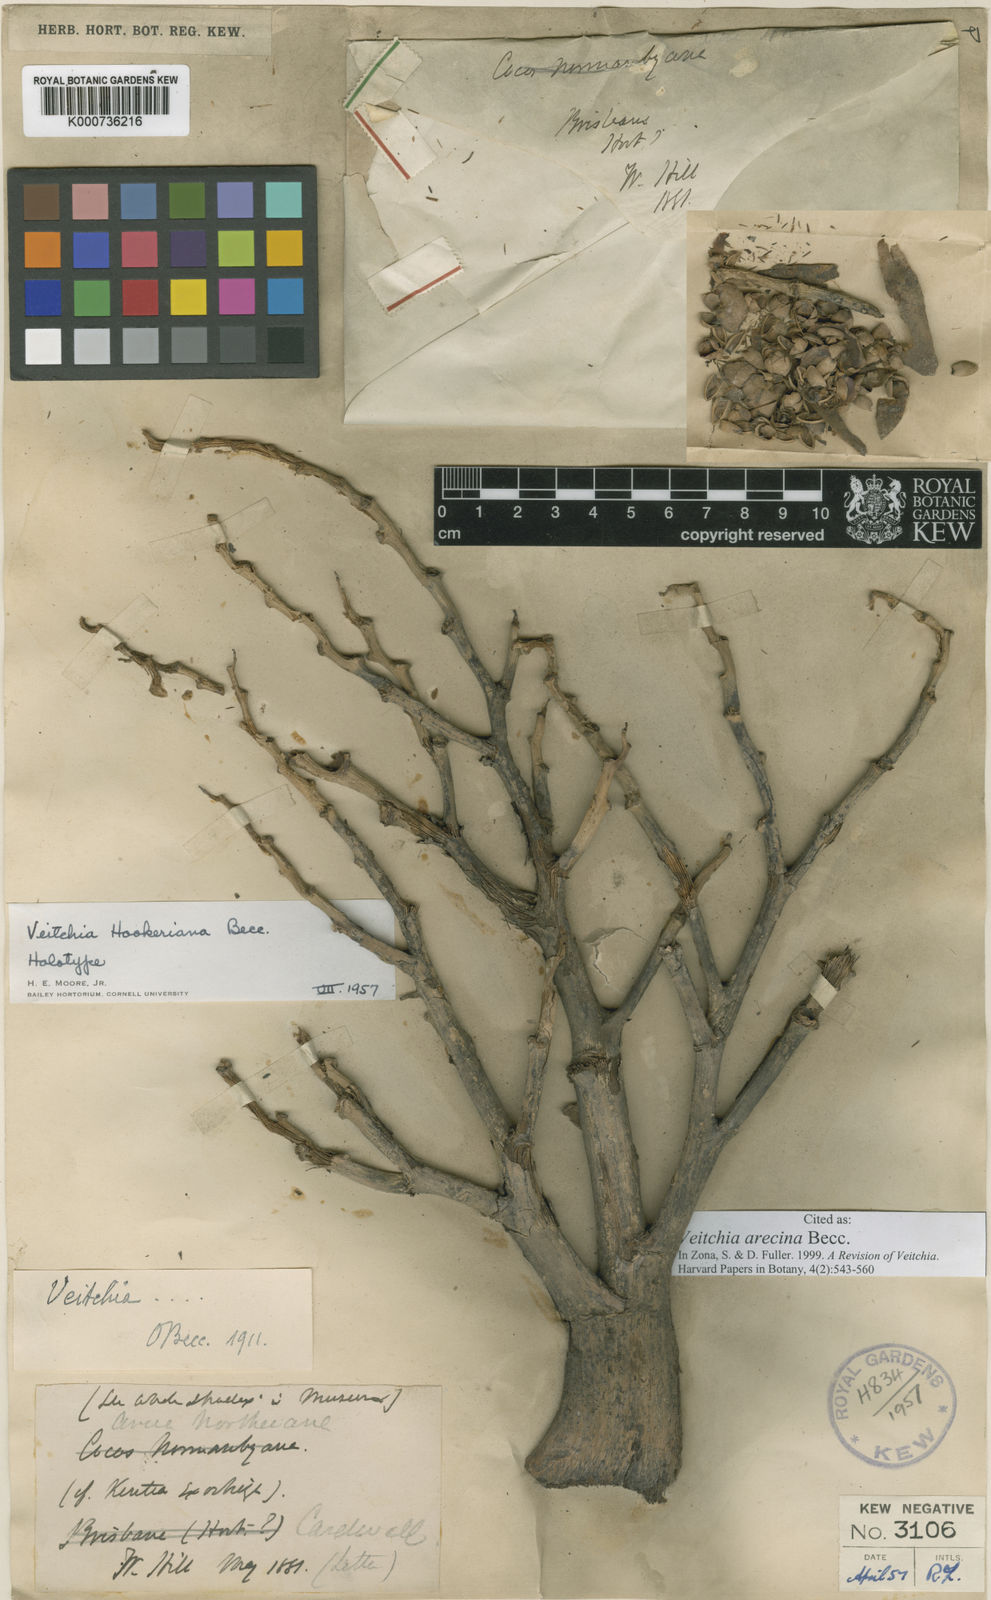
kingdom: Plantae
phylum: Tracheophyta
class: Liliopsida
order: Arecales
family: Arecaceae
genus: Veitchia
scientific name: Veitchia arecina
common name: Montgomery palm
